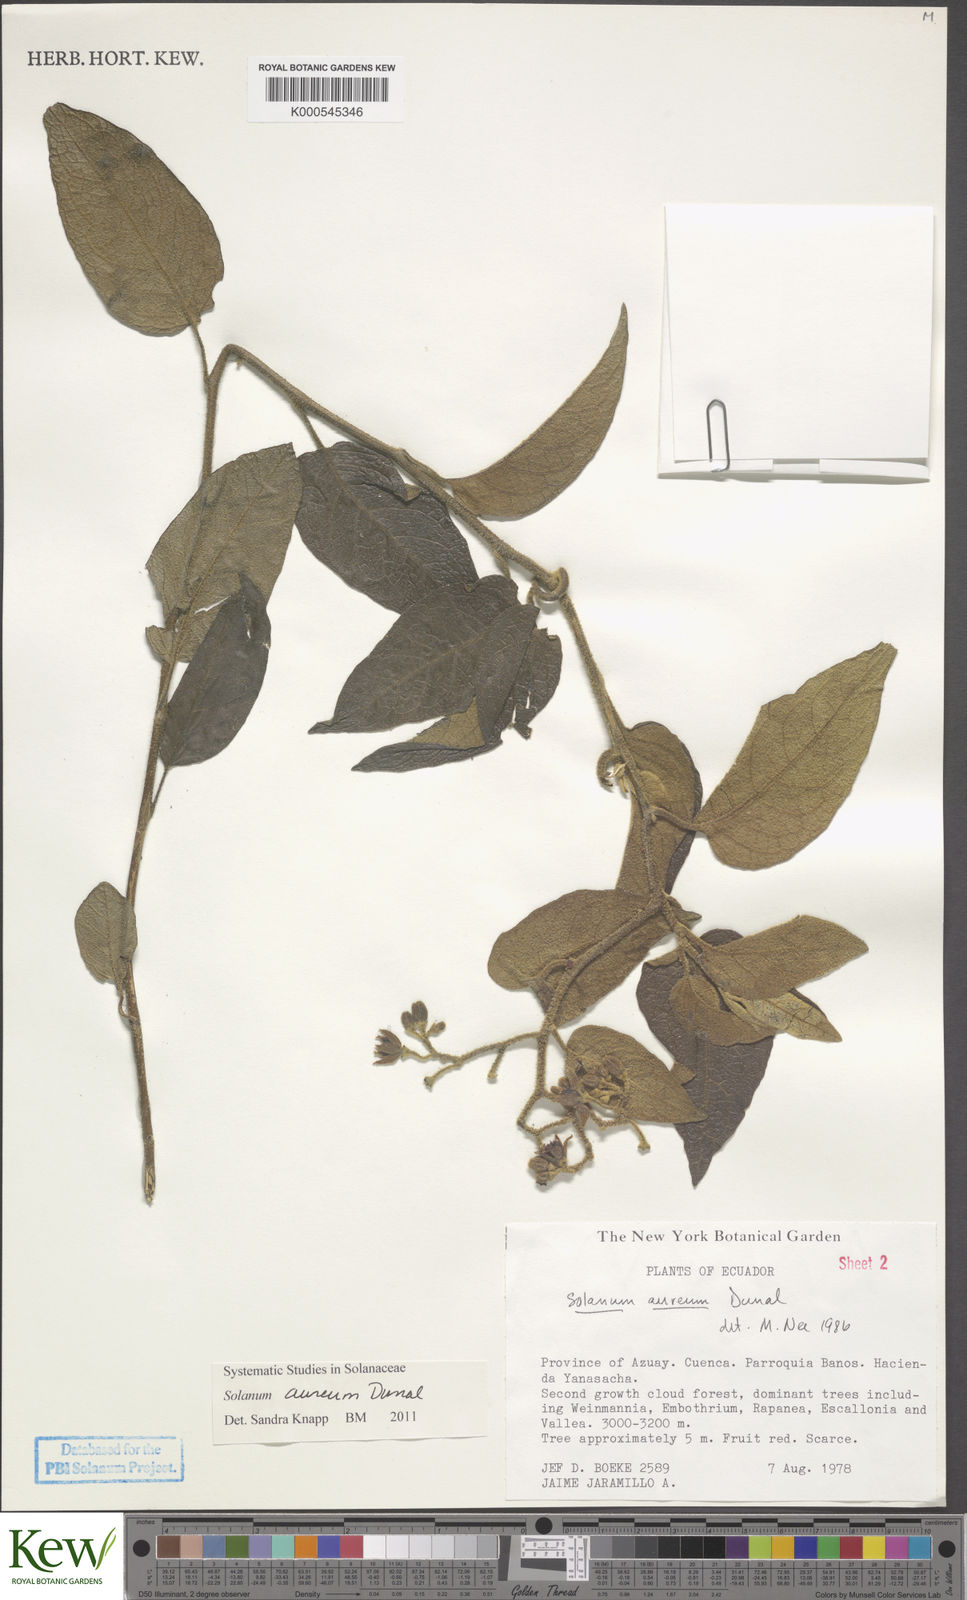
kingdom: Plantae
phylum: Tracheophyta
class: Magnoliopsida
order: Solanales
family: Solanaceae
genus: Solanum
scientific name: Solanum aureum
